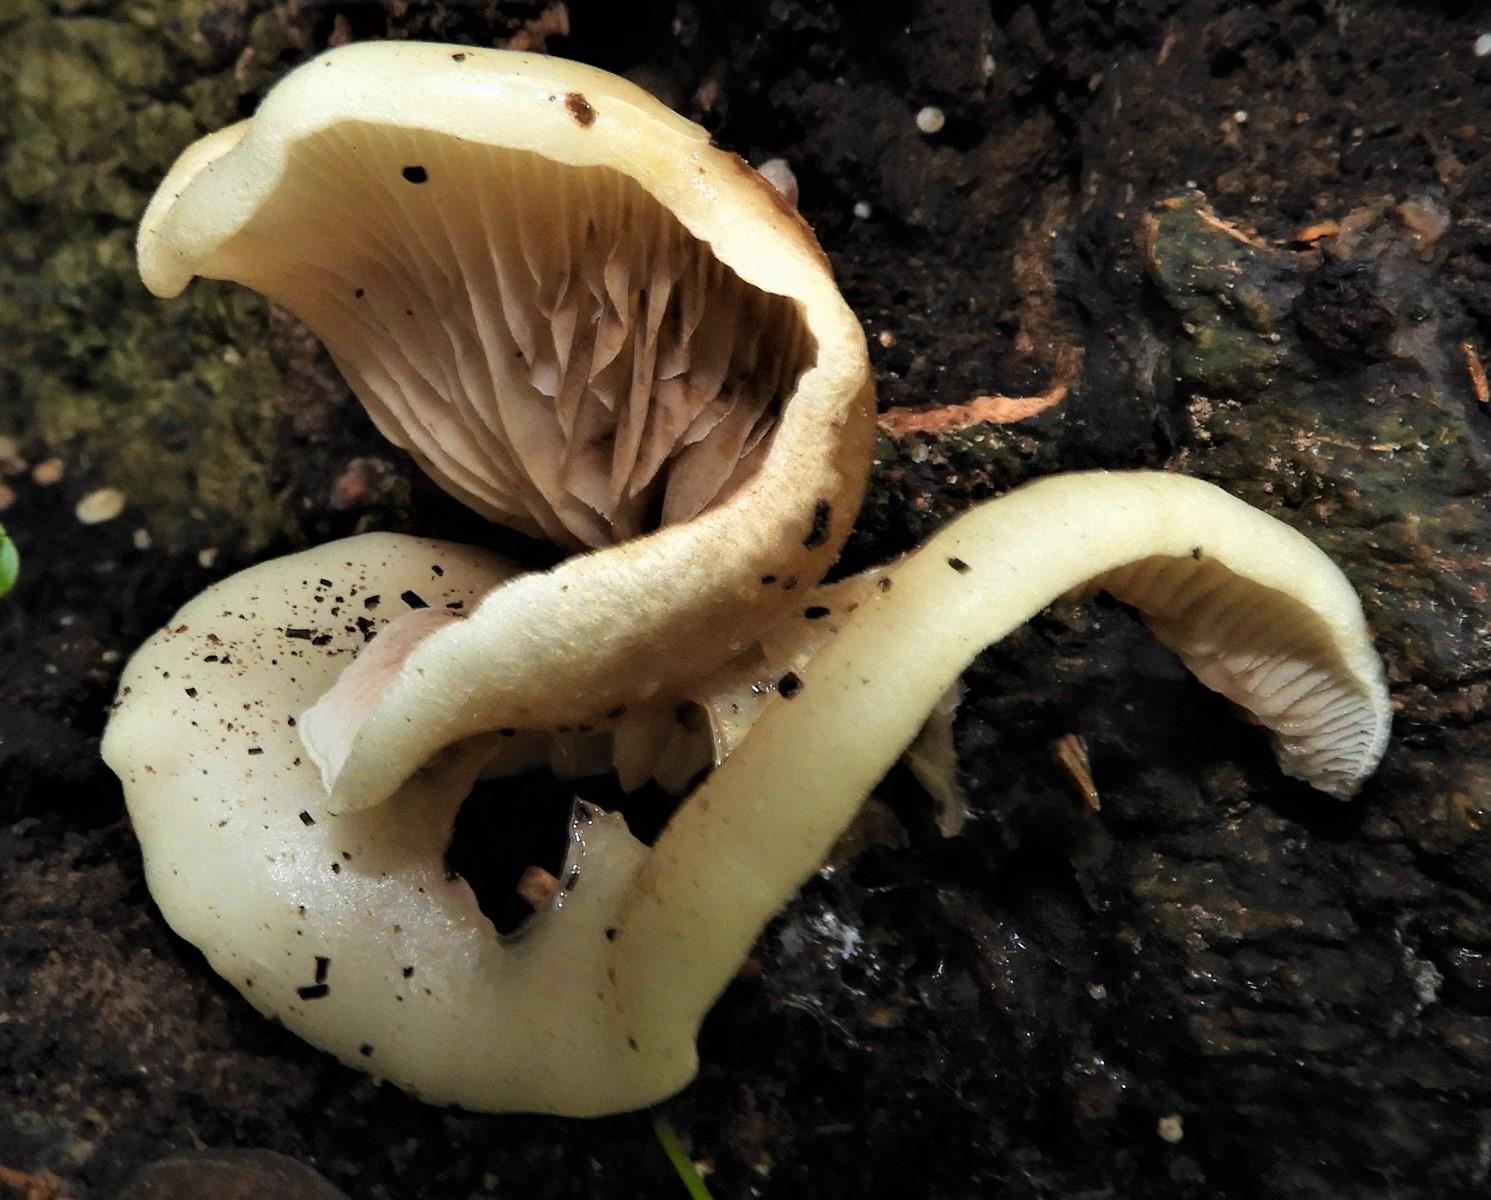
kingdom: Fungi
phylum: Basidiomycota
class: Agaricomycetes
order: Agaricales
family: Crepidotaceae
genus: Crepidotus
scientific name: Crepidotus mollis
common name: blød muslingesvamp
